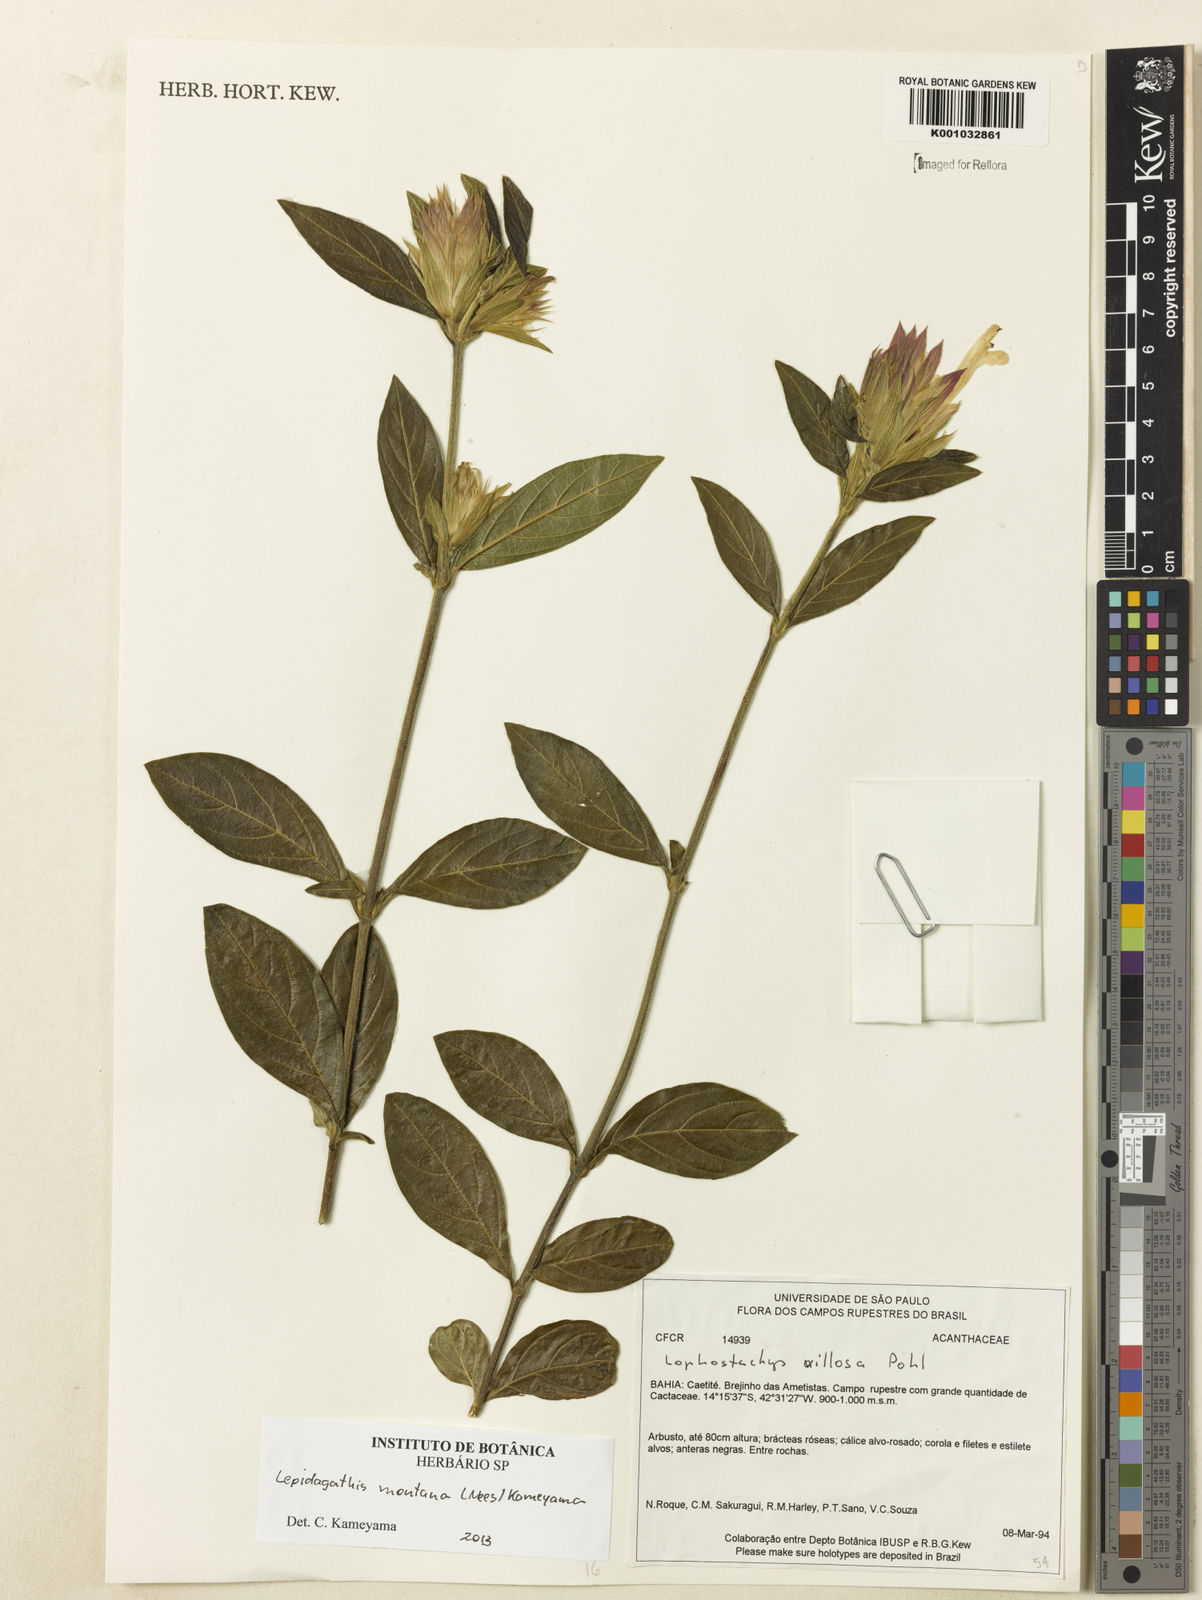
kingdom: Plantae
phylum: Tracheophyta
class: Magnoliopsida
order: Lamiales
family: Acanthaceae
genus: Lepidagathis
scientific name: Lepidagathis montana
